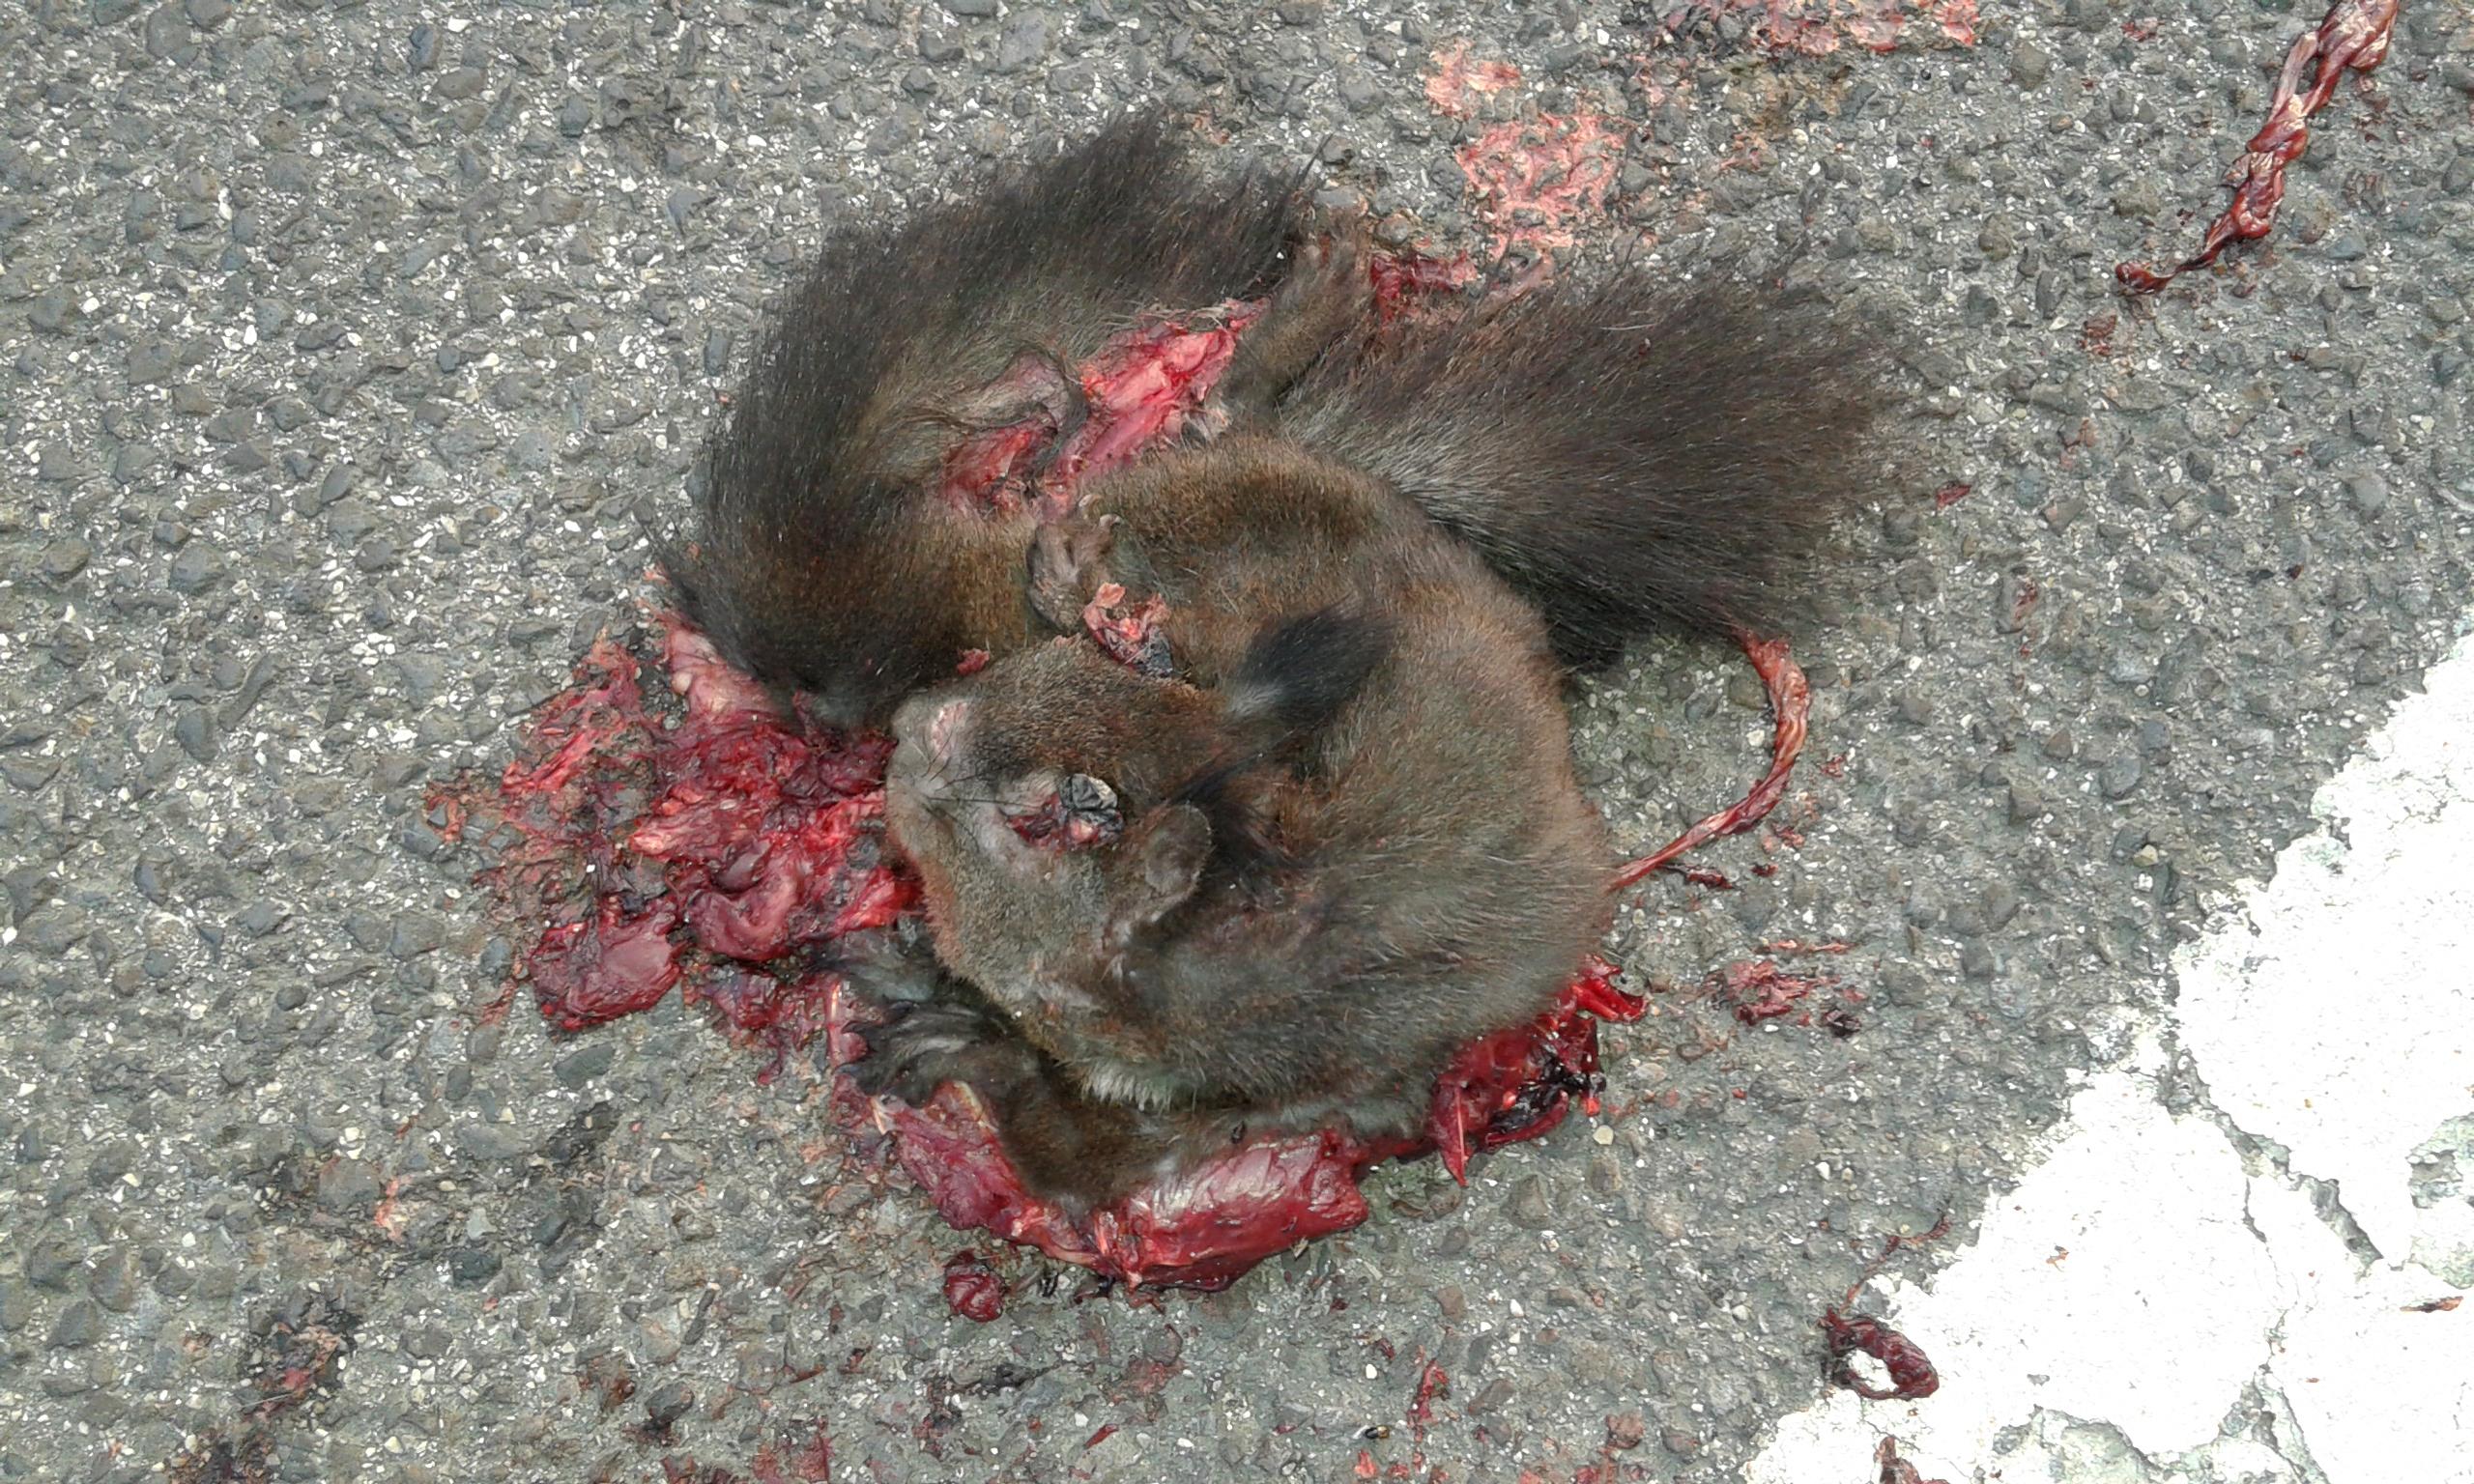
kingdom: Animalia
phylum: Chordata
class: Mammalia
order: Rodentia
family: Sciuridae
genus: Sciurus
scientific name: Sciurus vulgaris
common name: Eurasian red squirrel
